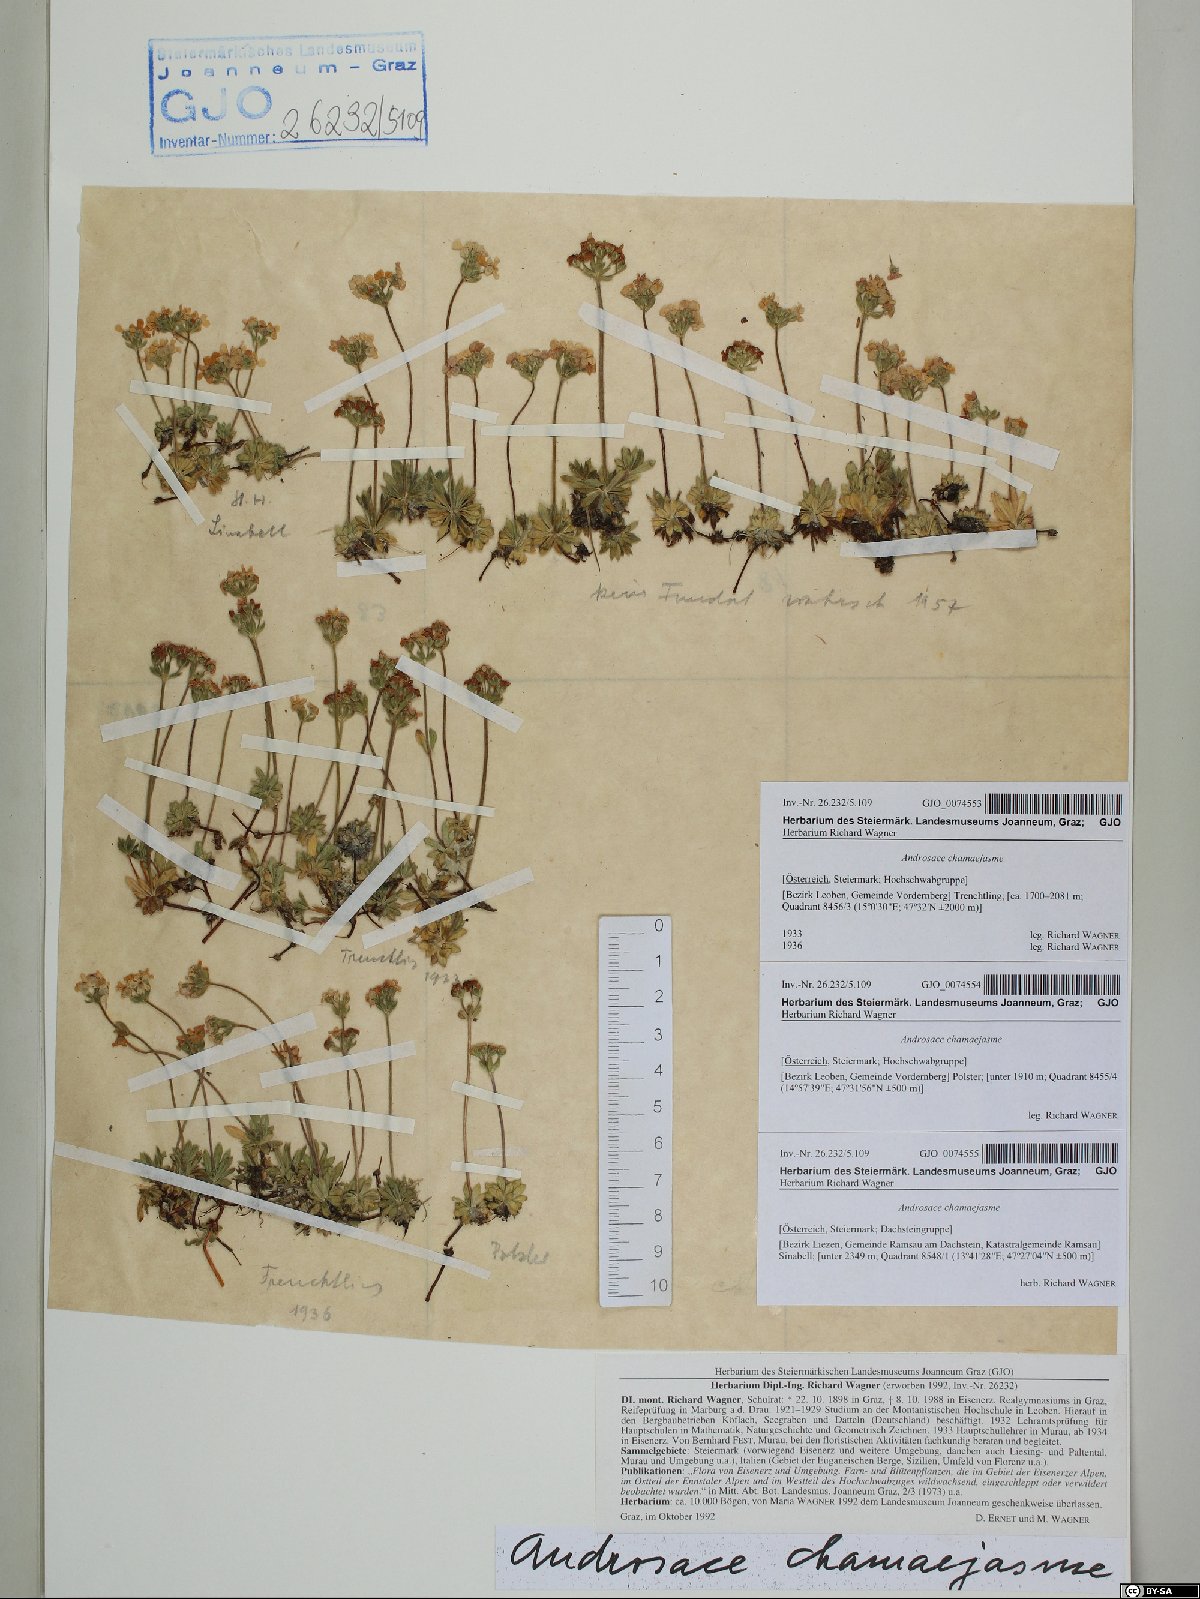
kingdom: Plantae
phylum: Tracheophyta
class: Magnoliopsida
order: Ericales
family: Primulaceae
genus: Androsace
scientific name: Androsace chamaejasme
